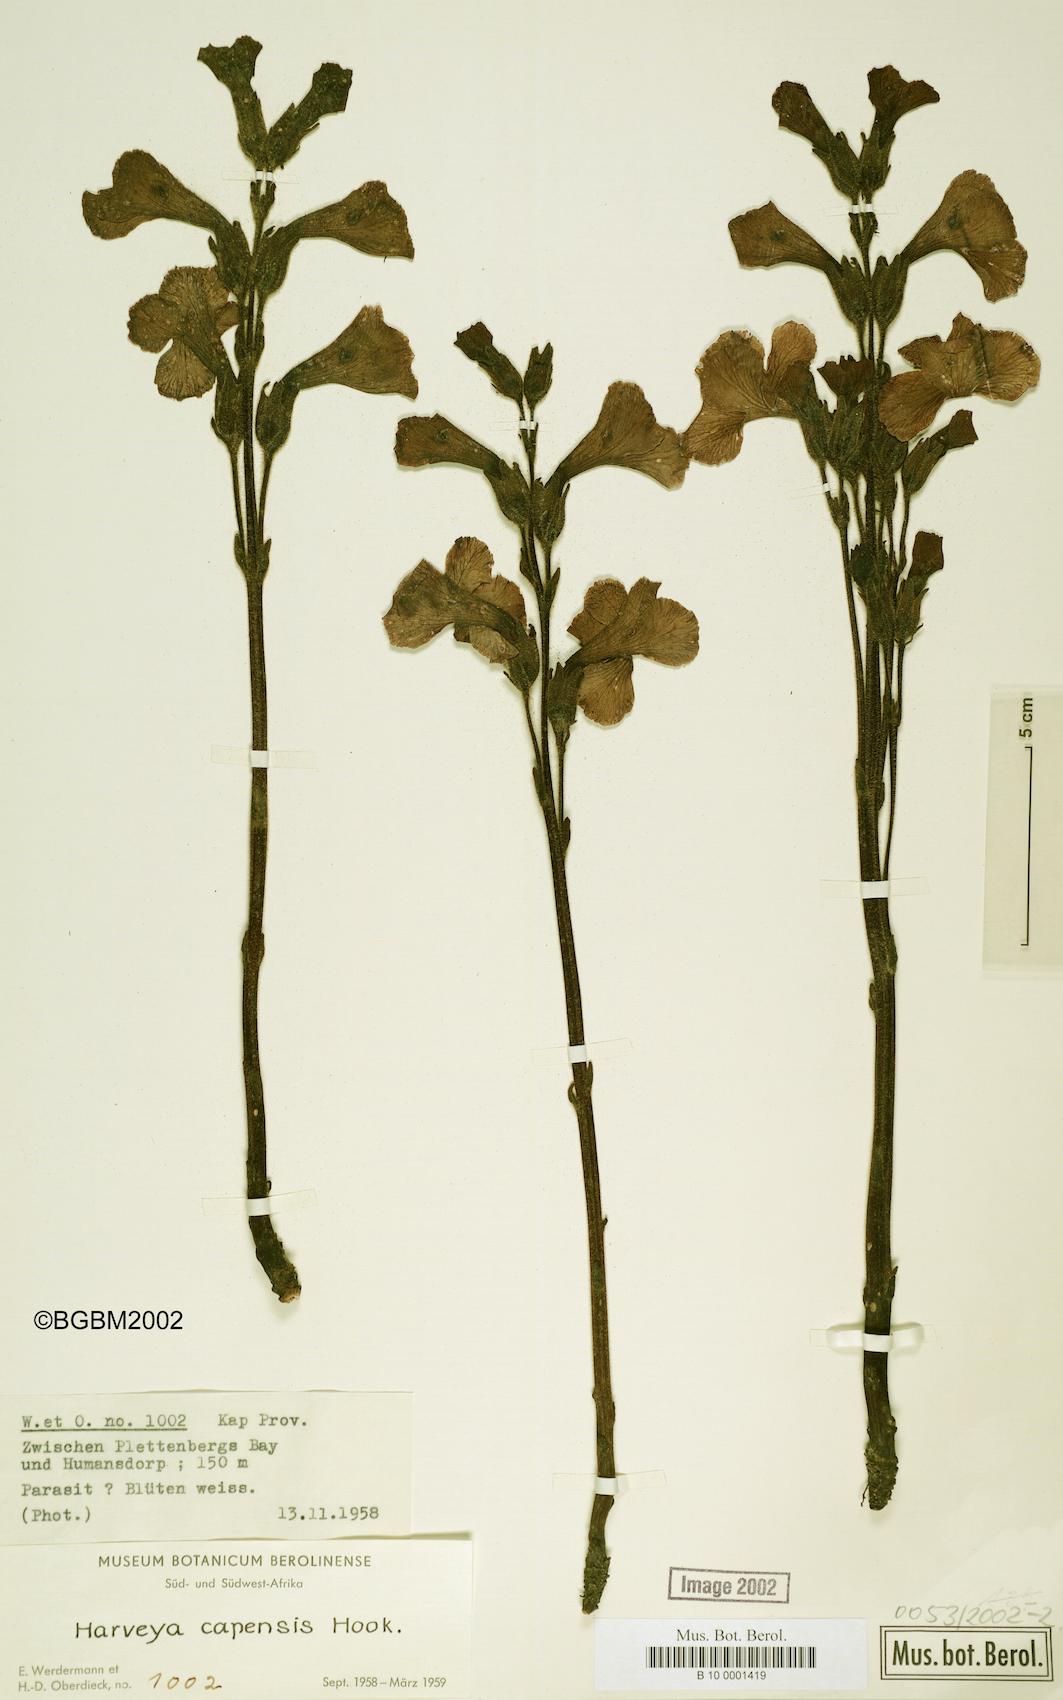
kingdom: Plantae
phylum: Tracheophyta
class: Magnoliopsida
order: Lamiales
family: Orobanchaceae
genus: Harveya
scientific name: Harveya capensis
